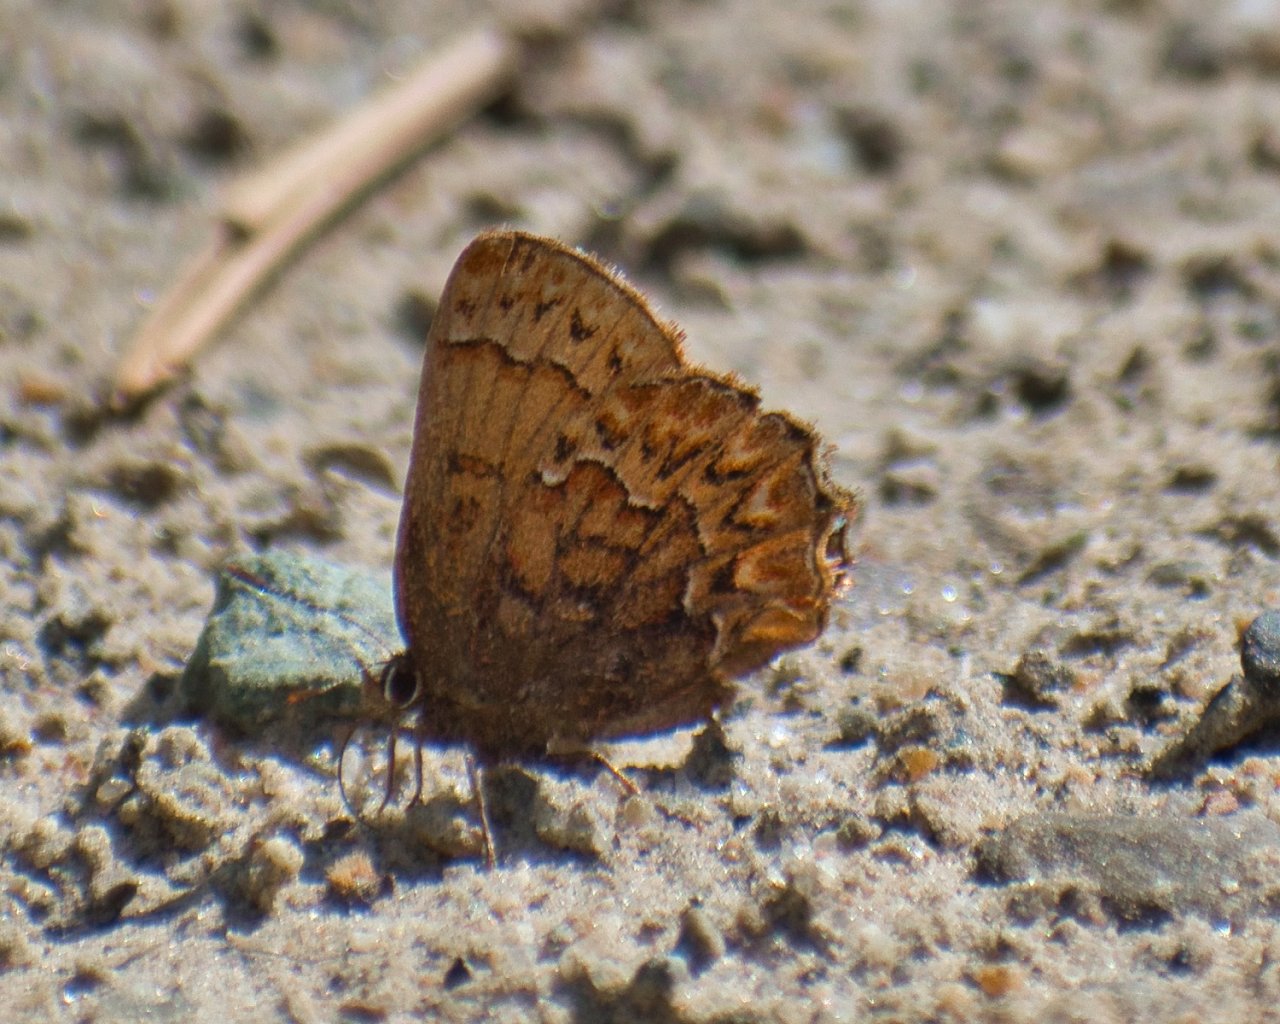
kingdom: Animalia
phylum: Arthropoda
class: Insecta
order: Lepidoptera
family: Lycaenidae
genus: Incisalia
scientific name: Incisalia eryphon
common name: Western Pine Elfin
